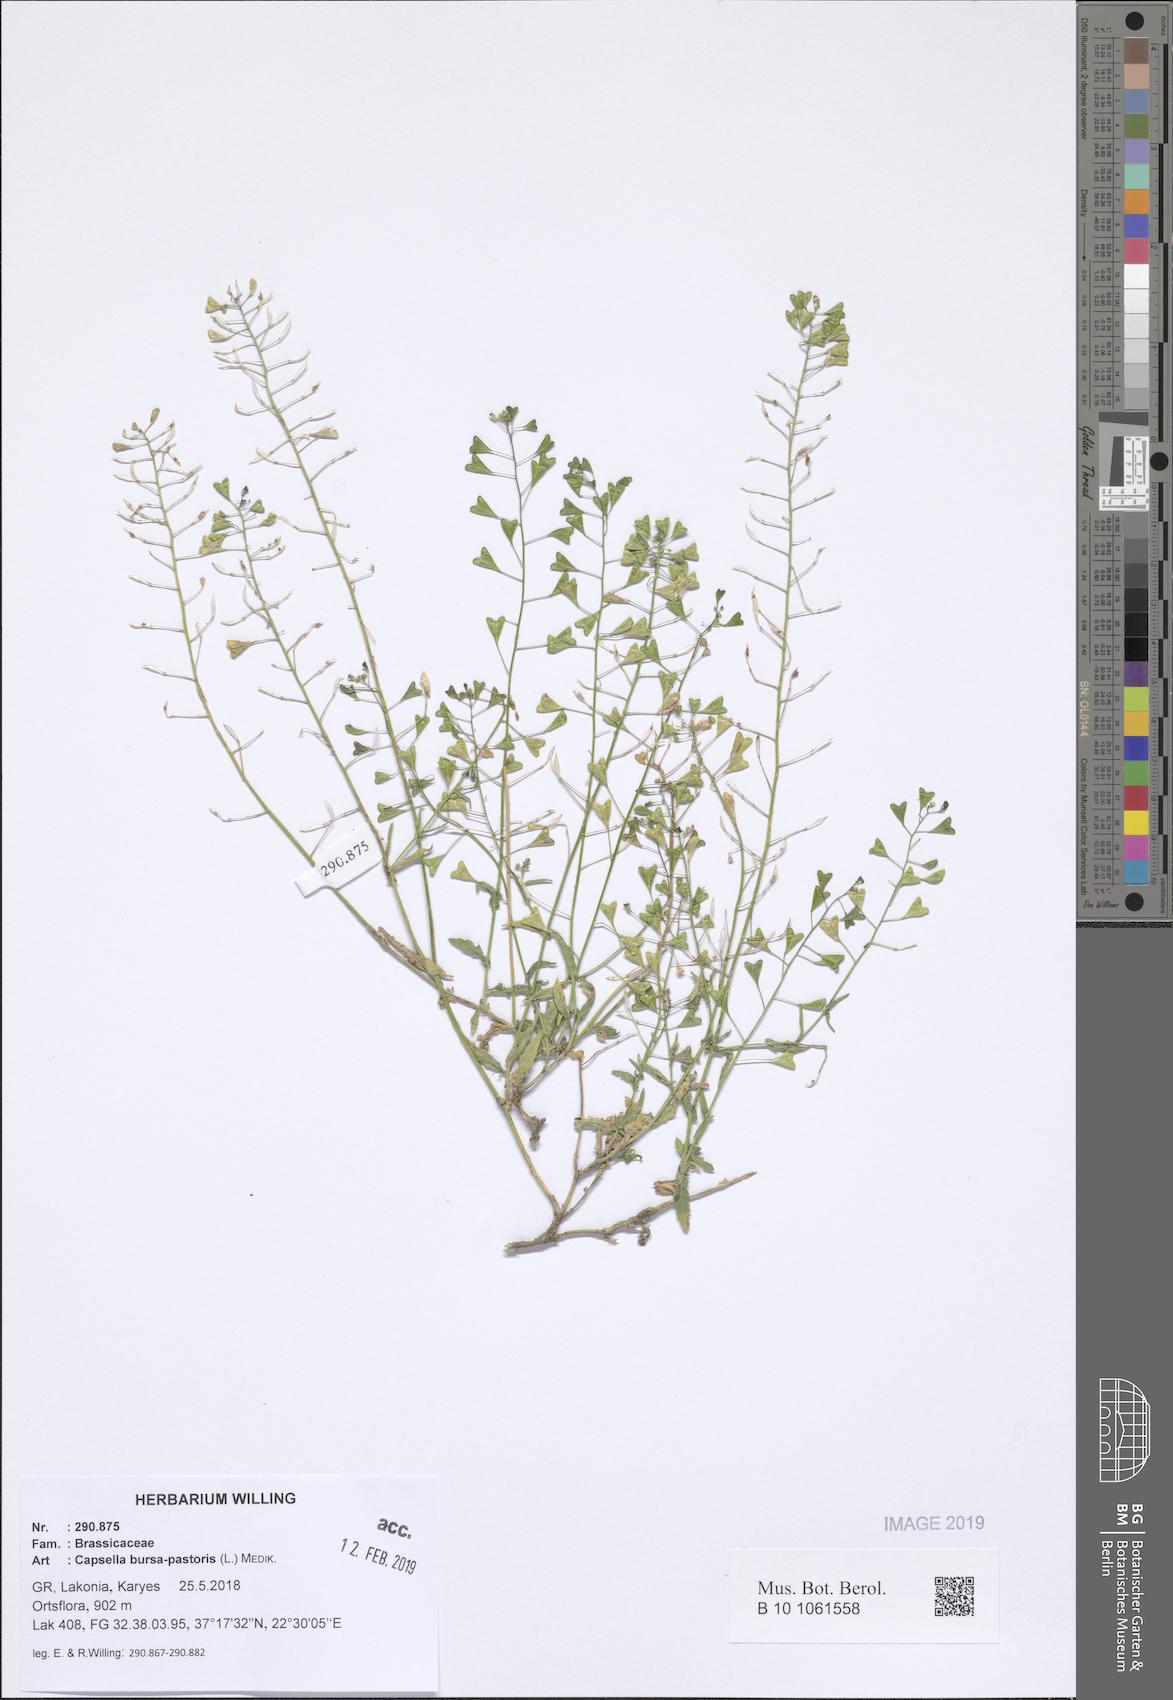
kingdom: Plantae
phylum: Tracheophyta
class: Magnoliopsida
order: Brassicales
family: Brassicaceae
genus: Capsella
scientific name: Capsella bursa-pastoris
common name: Shepherd's purse
